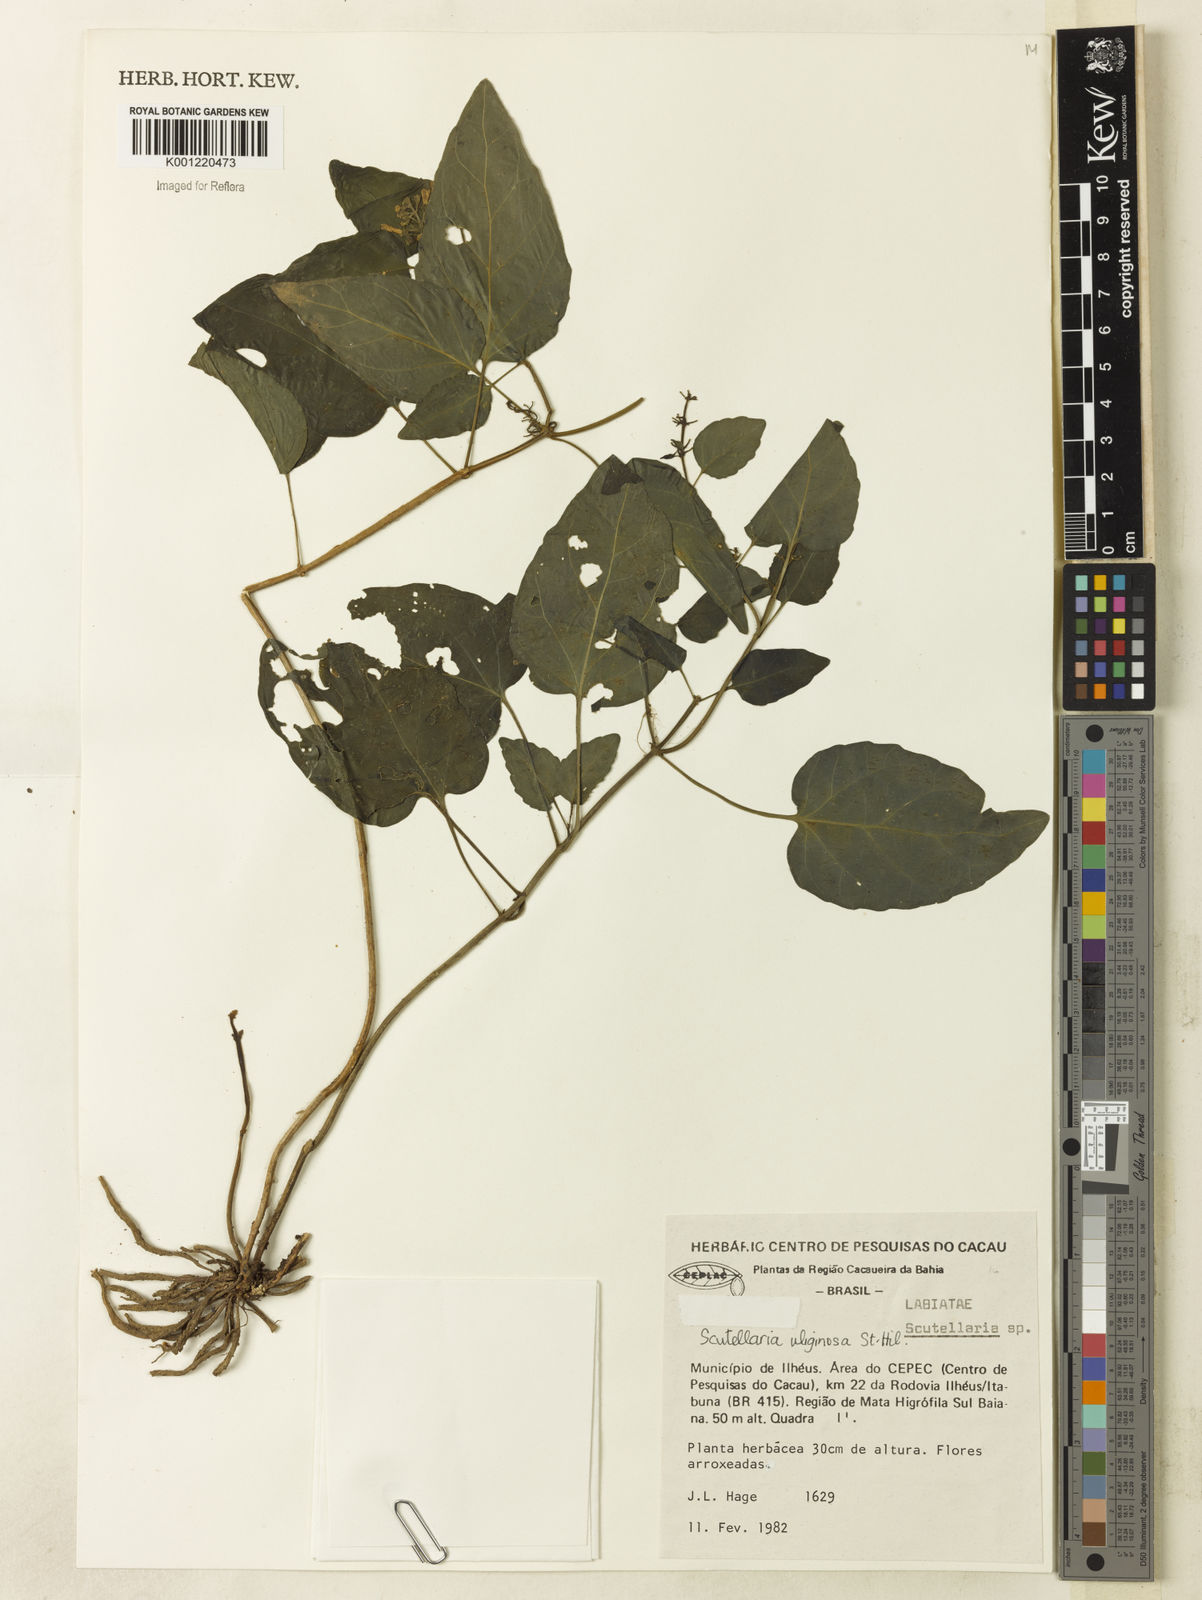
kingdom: Plantae
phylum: Tracheophyta
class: Magnoliopsida
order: Lamiales
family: Lamiaceae
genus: Scutellaria
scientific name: Scutellaria uliginosa
